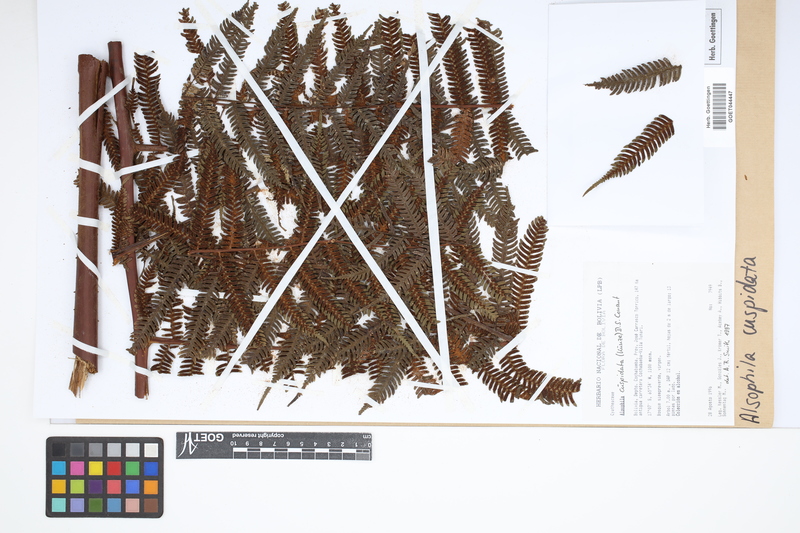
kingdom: Plantae
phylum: Tracheophyta
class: Polypodiopsida
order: Cyatheales
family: Cyatheaceae
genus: Alsophila
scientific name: Alsophila cuspidata
